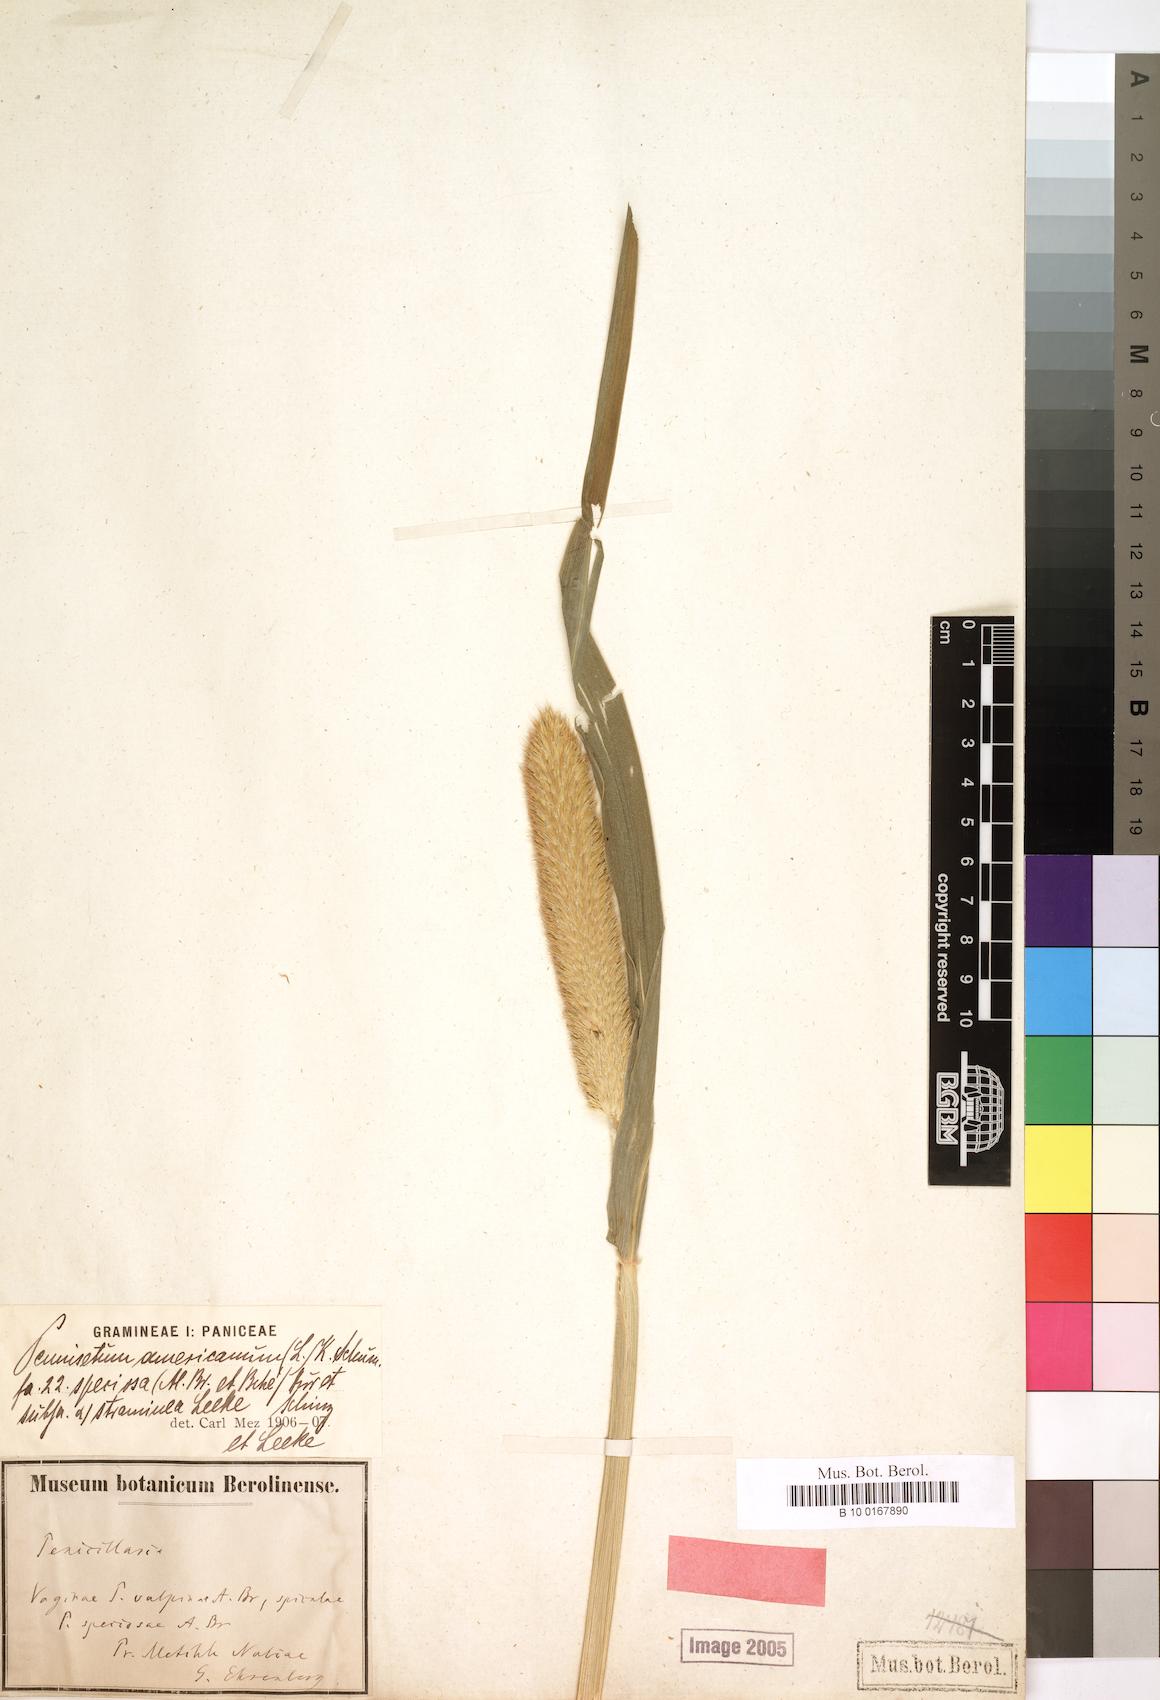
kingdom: Plantae
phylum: Tracheophyta
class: Liliopsida
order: Poales
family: Poaceae
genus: Cenchrus
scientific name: Cenchrus sieberianus
